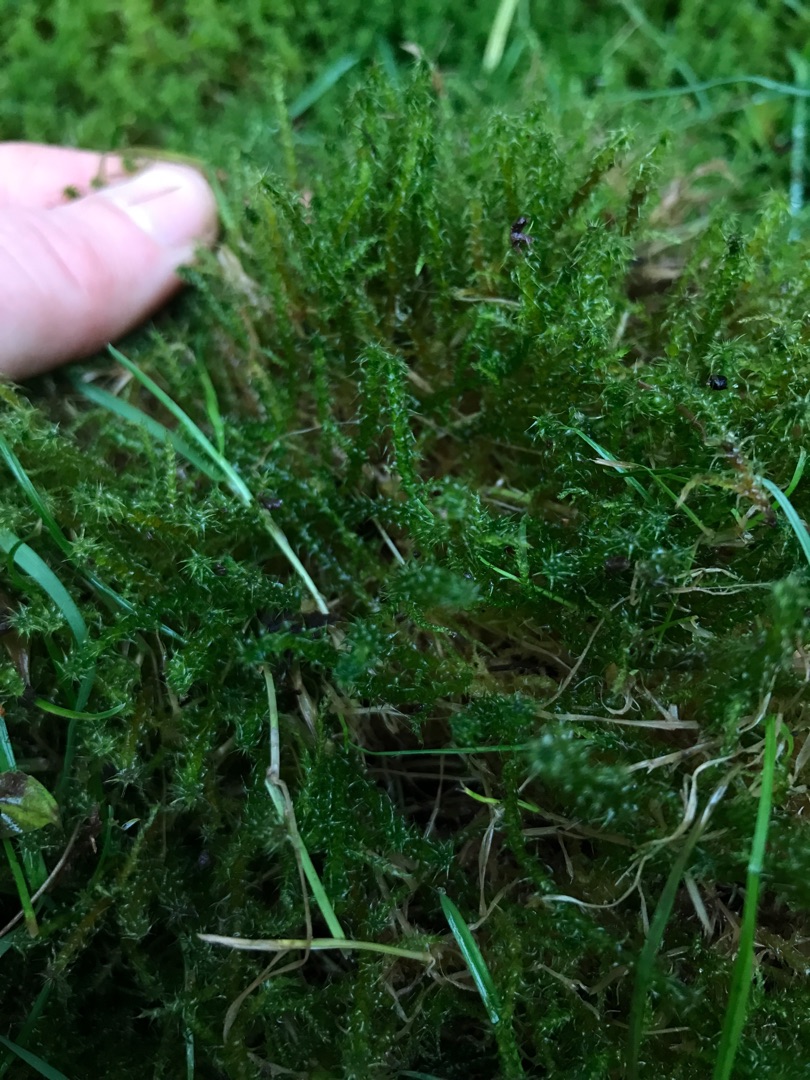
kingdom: Plantae
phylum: Bryophyta
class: Bryopsida
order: Hypnales
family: Hylocomiaceae
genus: Rhytidiadelphus
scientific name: Rhytidiadelphus squarrosus
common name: Plæne-kransemos
